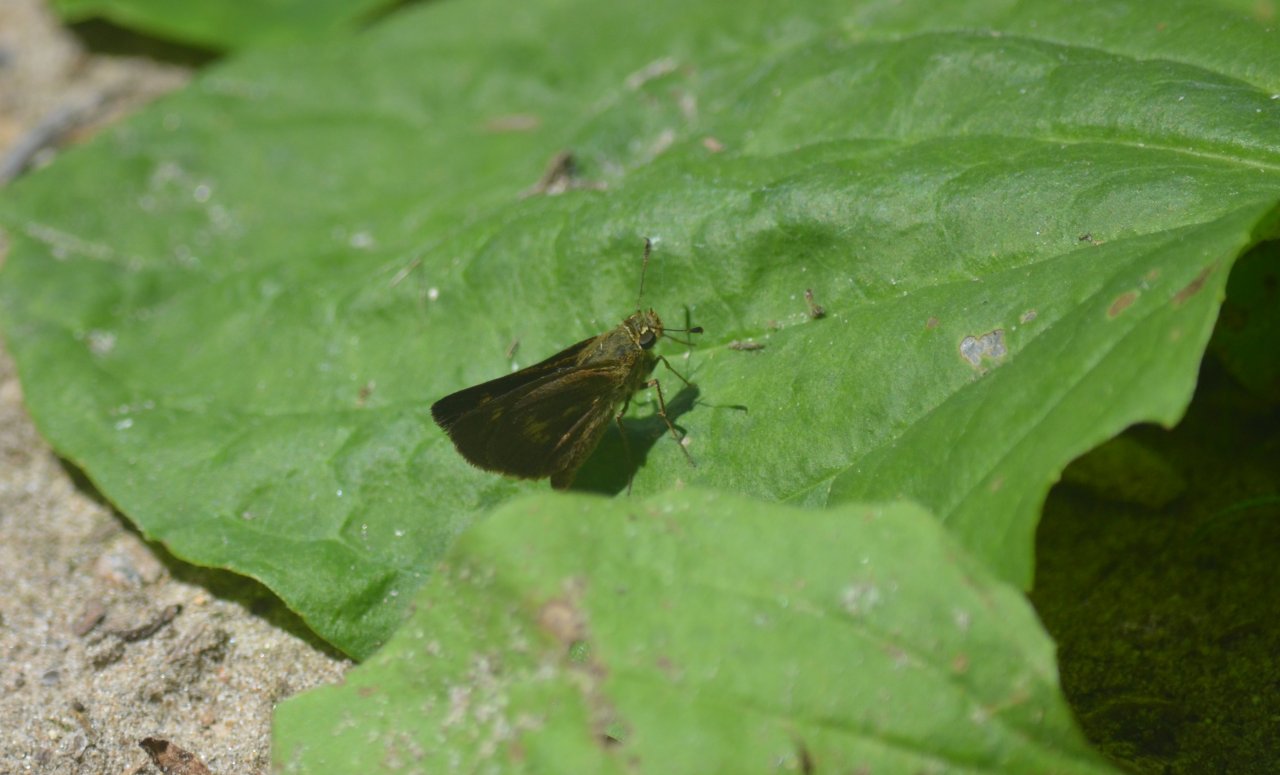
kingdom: Animalia
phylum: Arthropoda
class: Insecta
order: Lepidoptera
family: Hesperiidae
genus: Euphyes
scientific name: Euphyes vestris
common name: Dun Skipper
